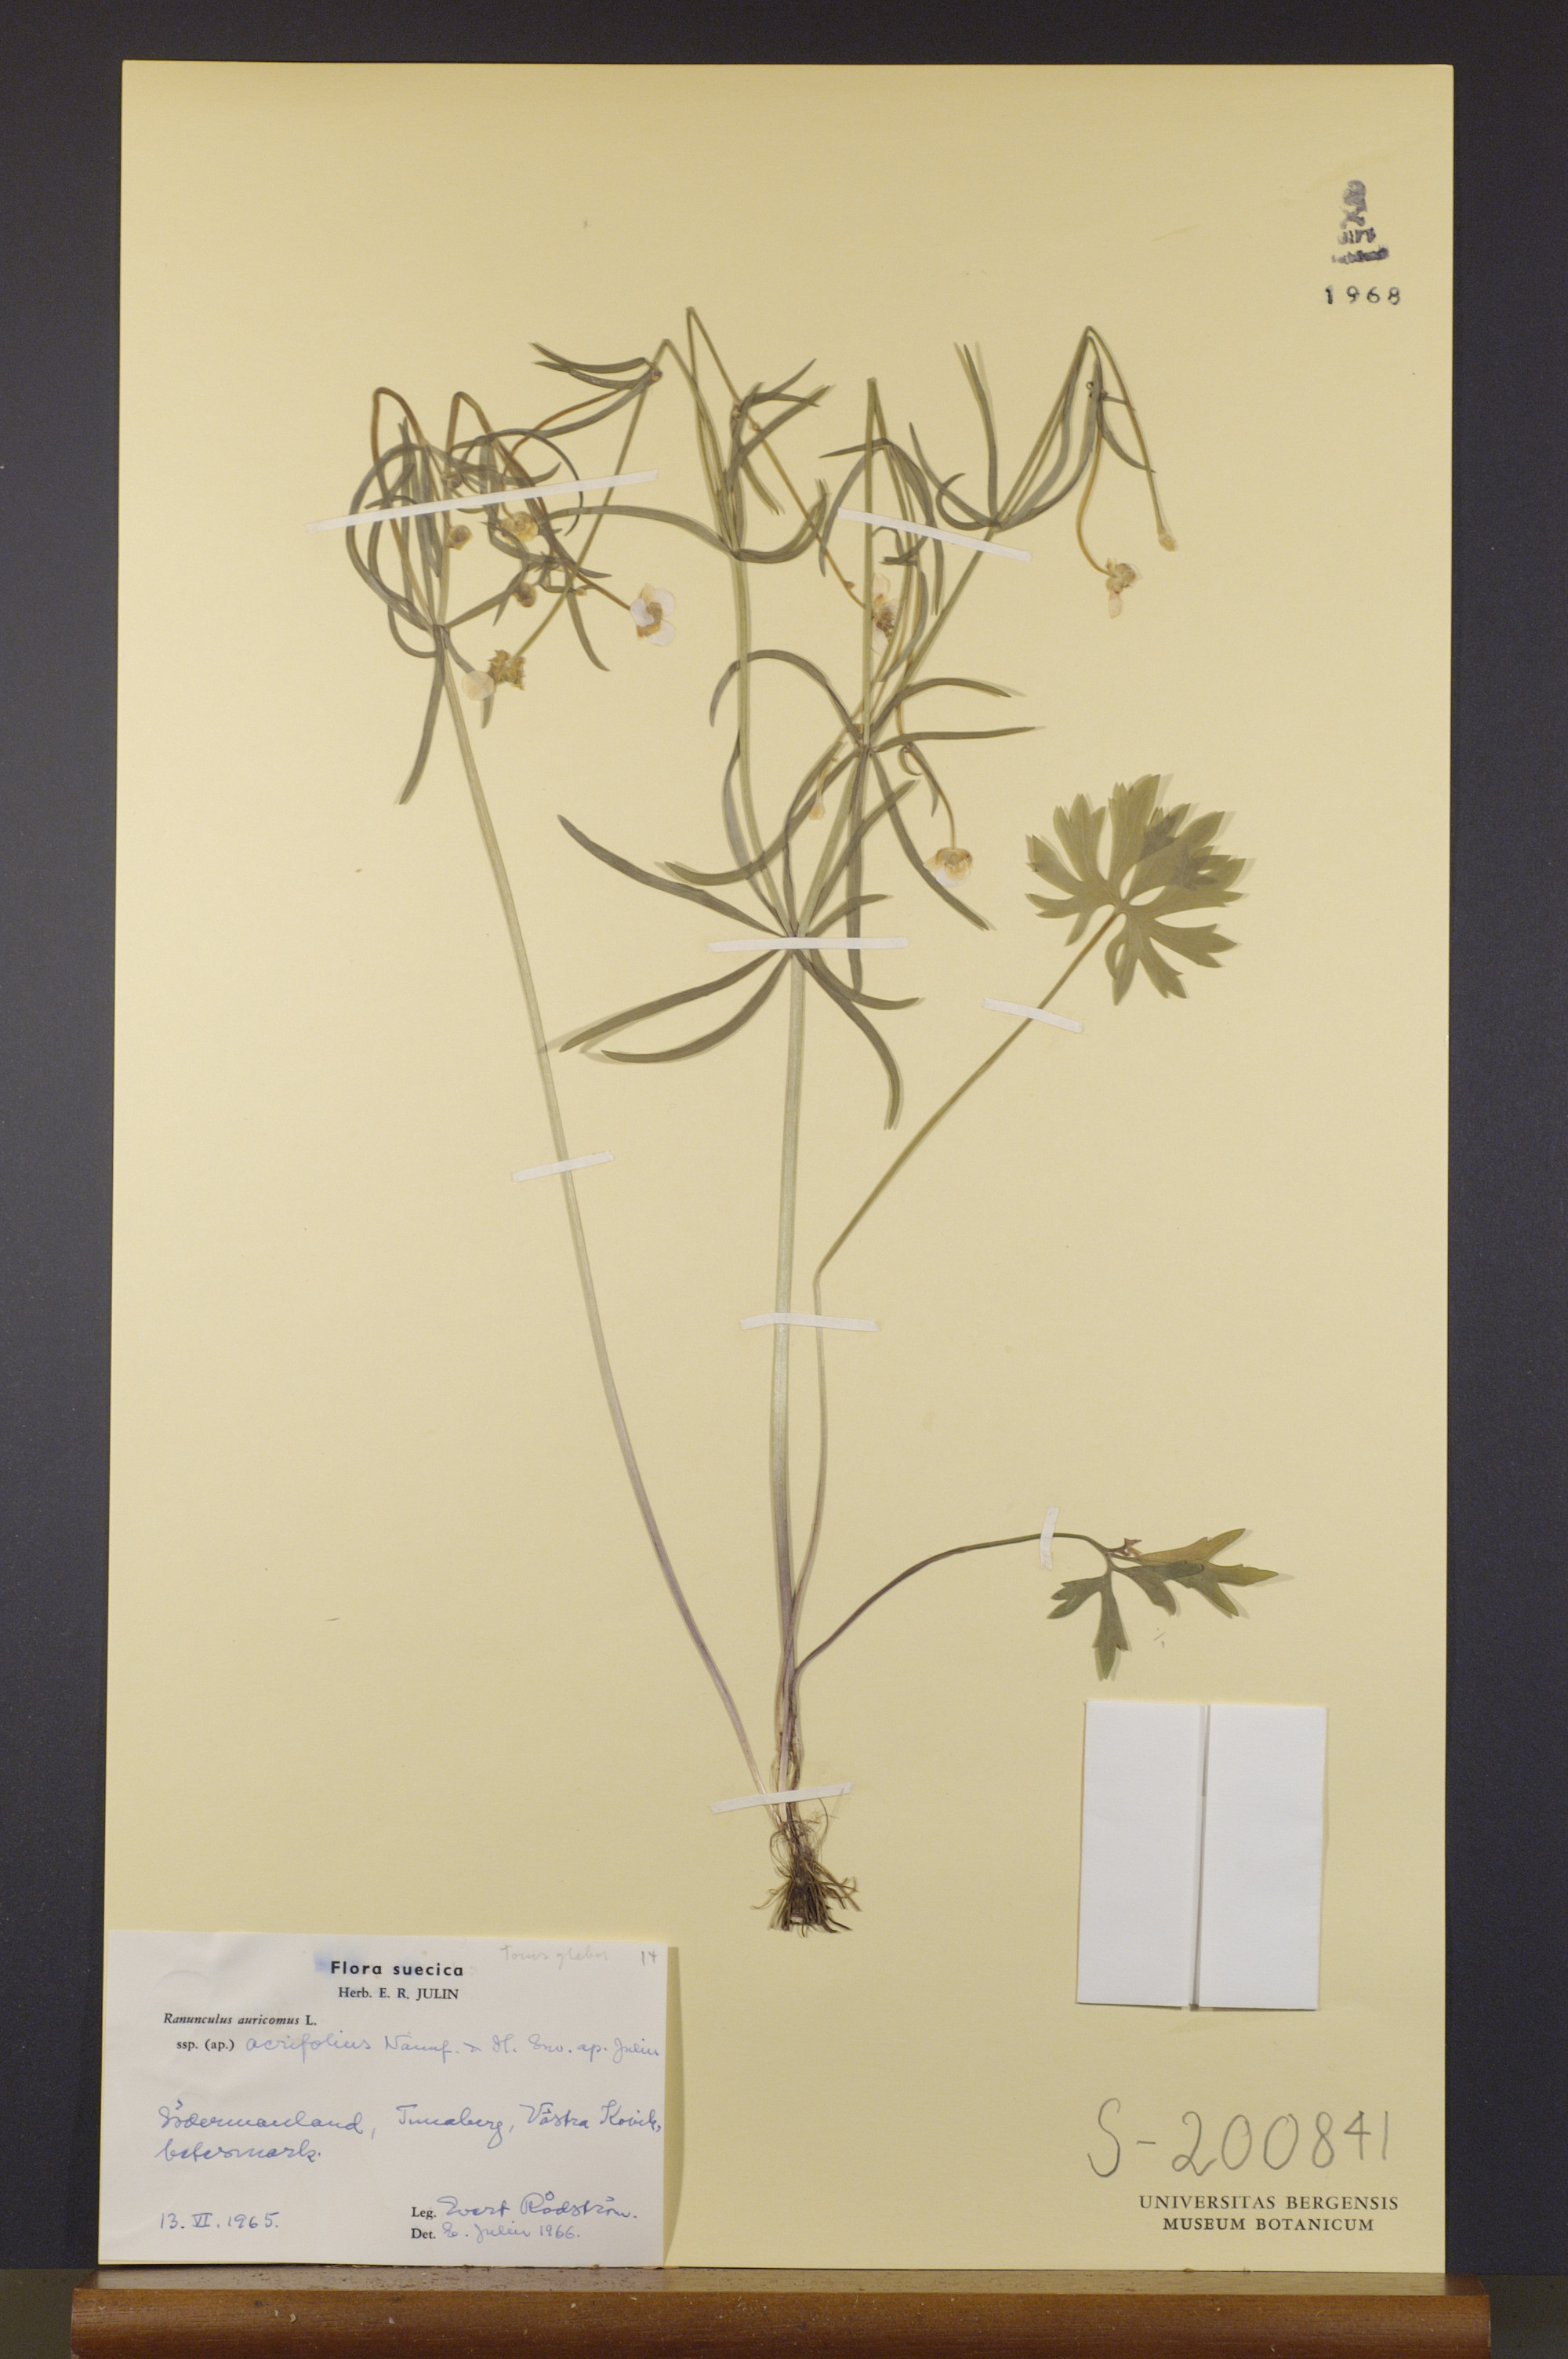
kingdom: Plantae
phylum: Tracheophyta
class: Magnoliopsida
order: Ranunculales
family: Ranunculaceae
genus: Ranunculus
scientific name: Ranunculus acrifolius
